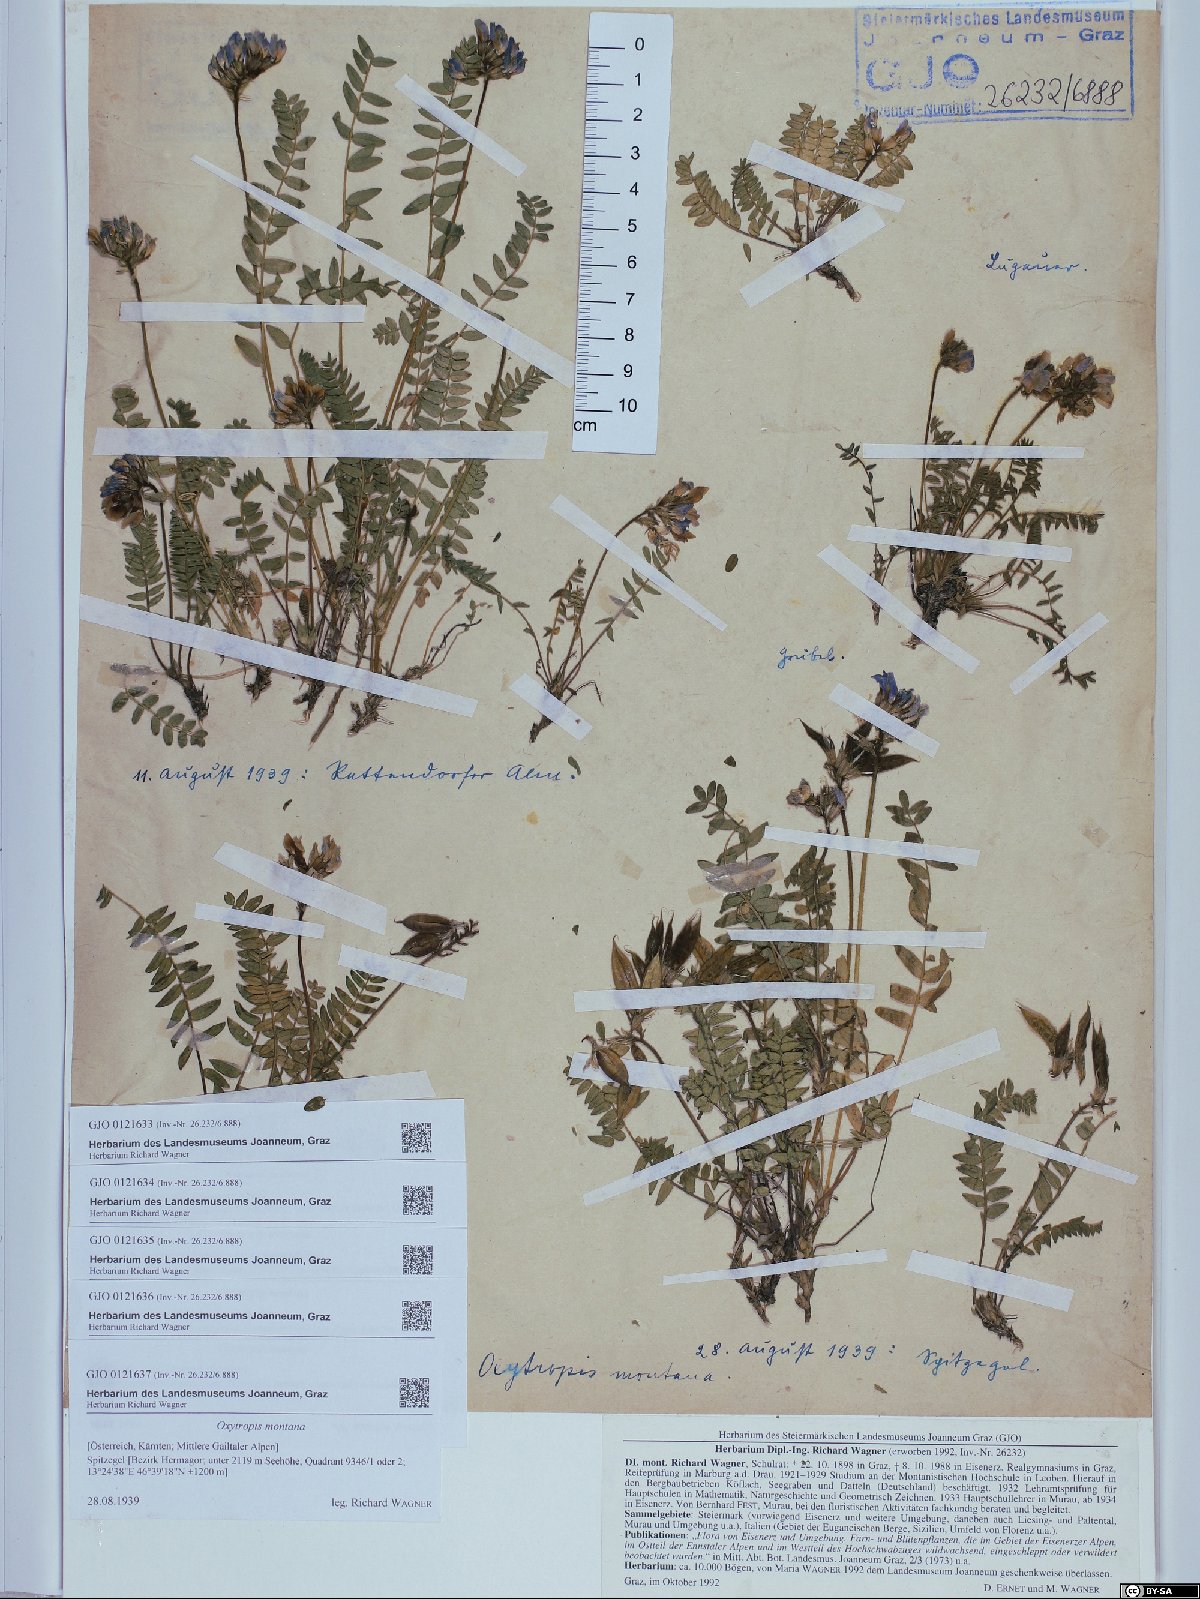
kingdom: Plantae
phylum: Tracheophyta
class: Magnoliopsida
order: Fabales
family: Fabaceae
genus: Oxytropis
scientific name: Oxytropis montana
